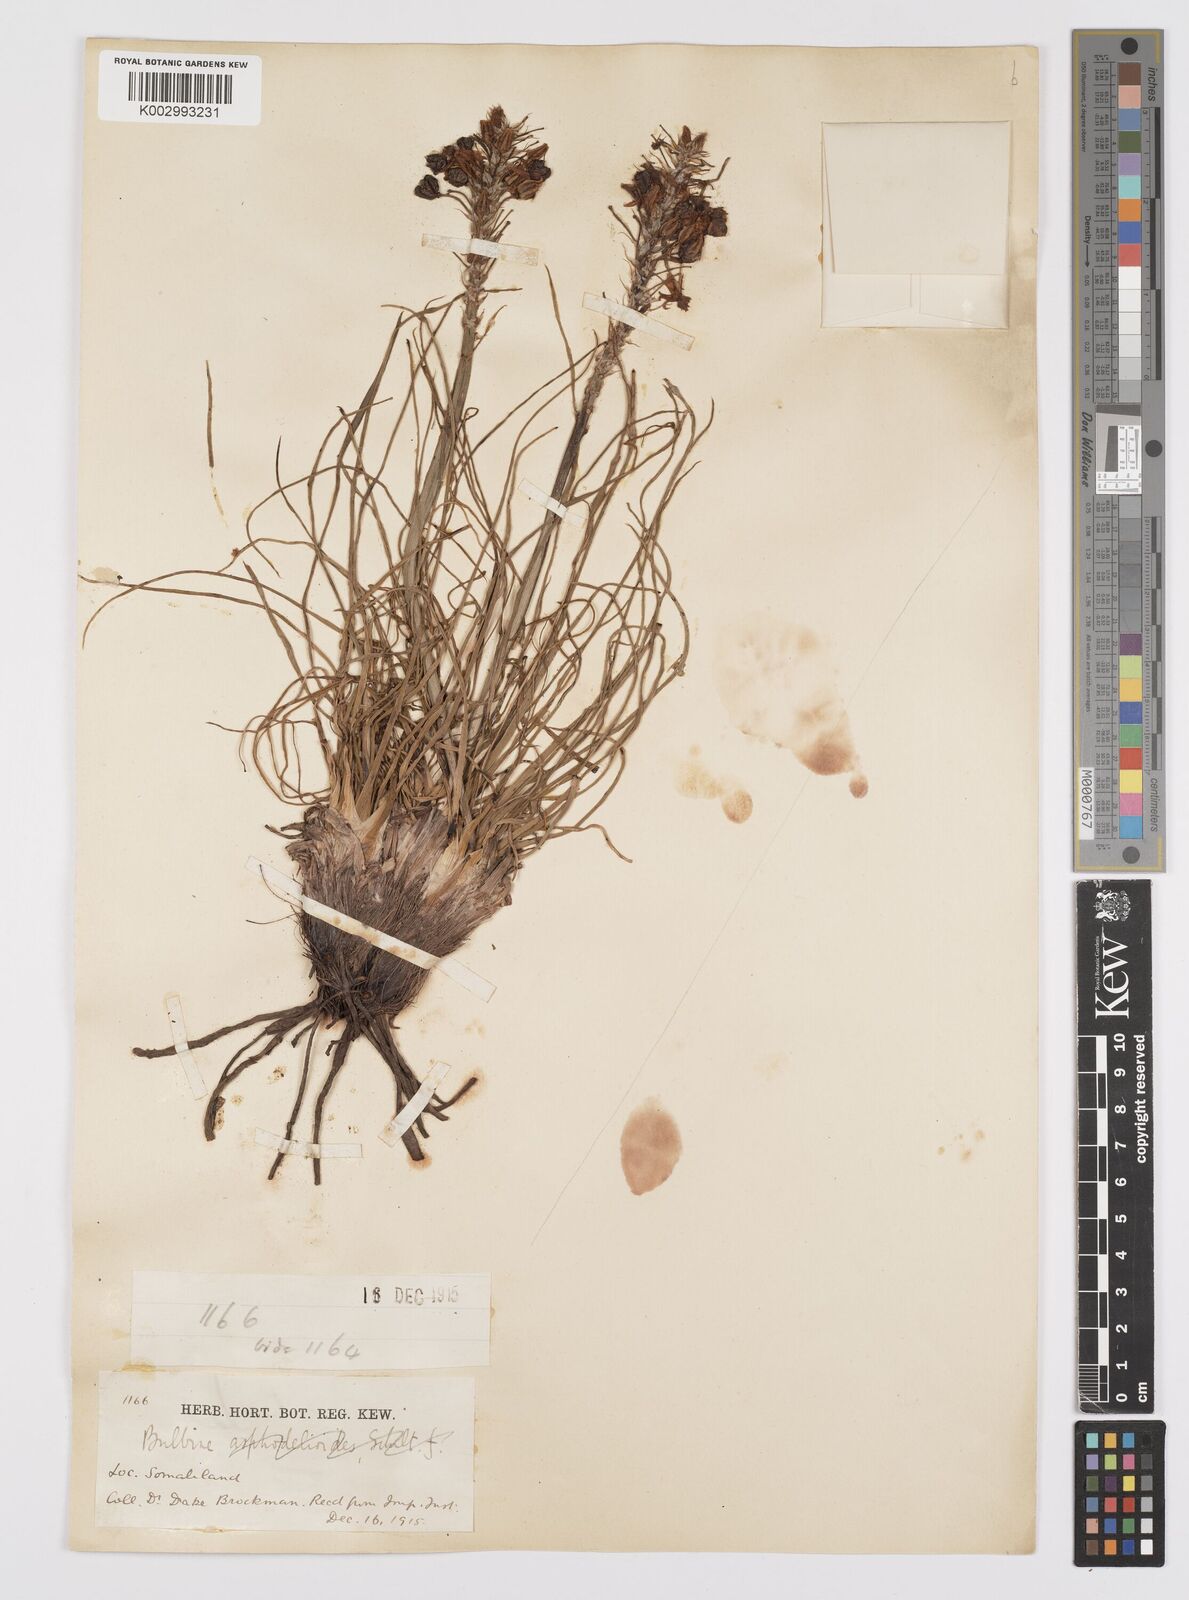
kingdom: Plantae
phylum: Tracheophyta
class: Liliopsida
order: Asparagales
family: Asphodelaceae
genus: Bulbine
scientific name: Bulbine abyssinica
